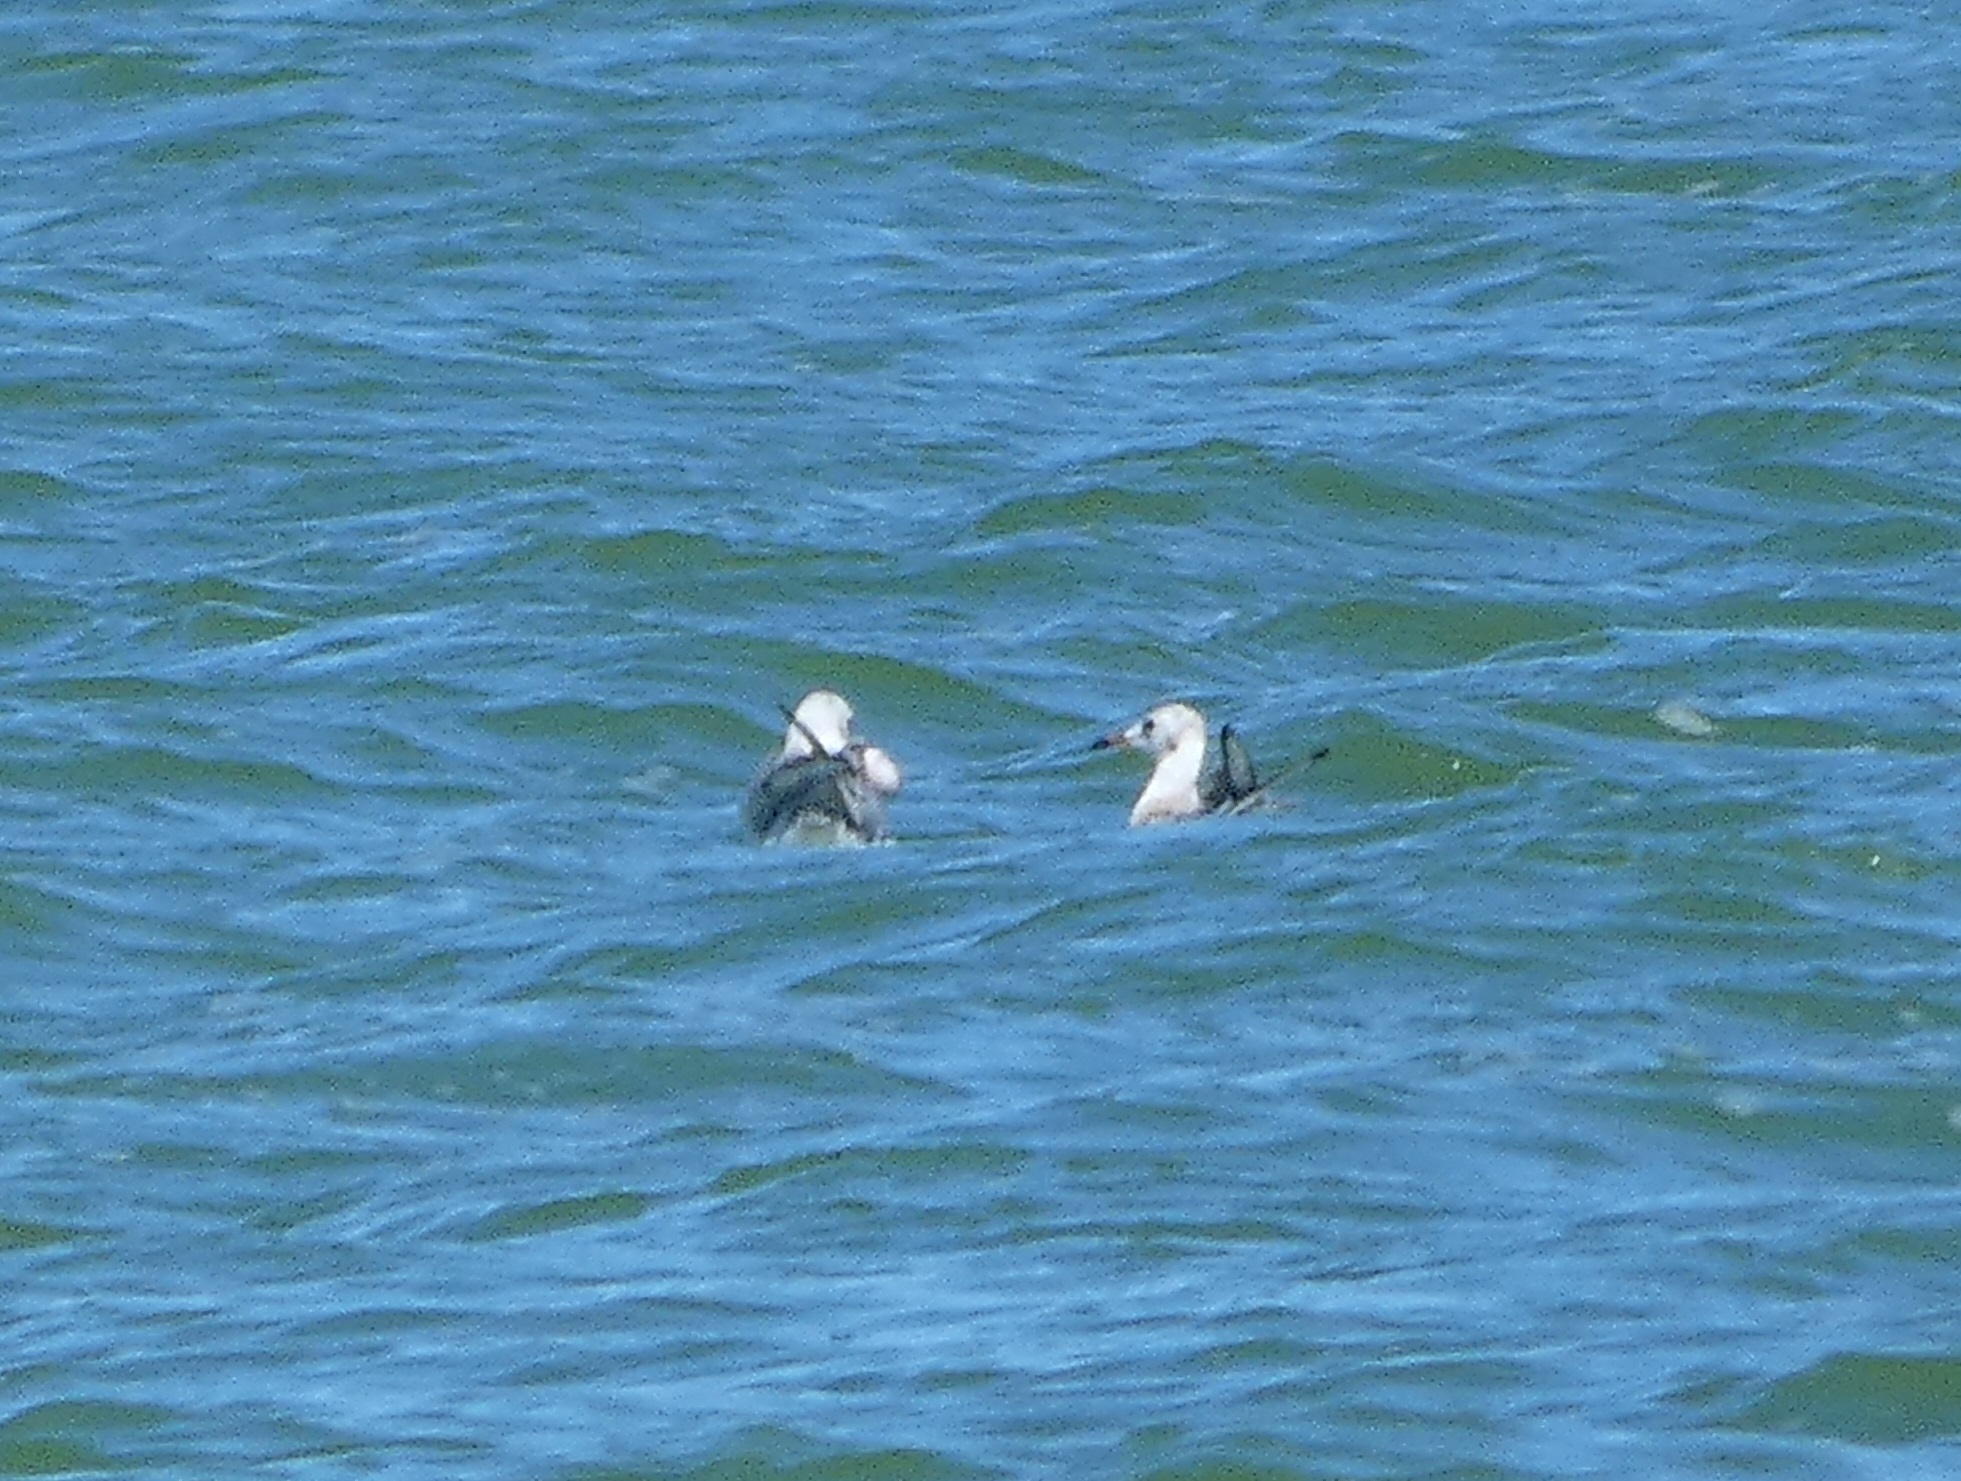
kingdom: Animalia
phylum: Chordata
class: Aves
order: Charadriiformes
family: Laridae
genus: Chroicocephalus
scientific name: Chroicocephalus ridibundus
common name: Hættemåge
